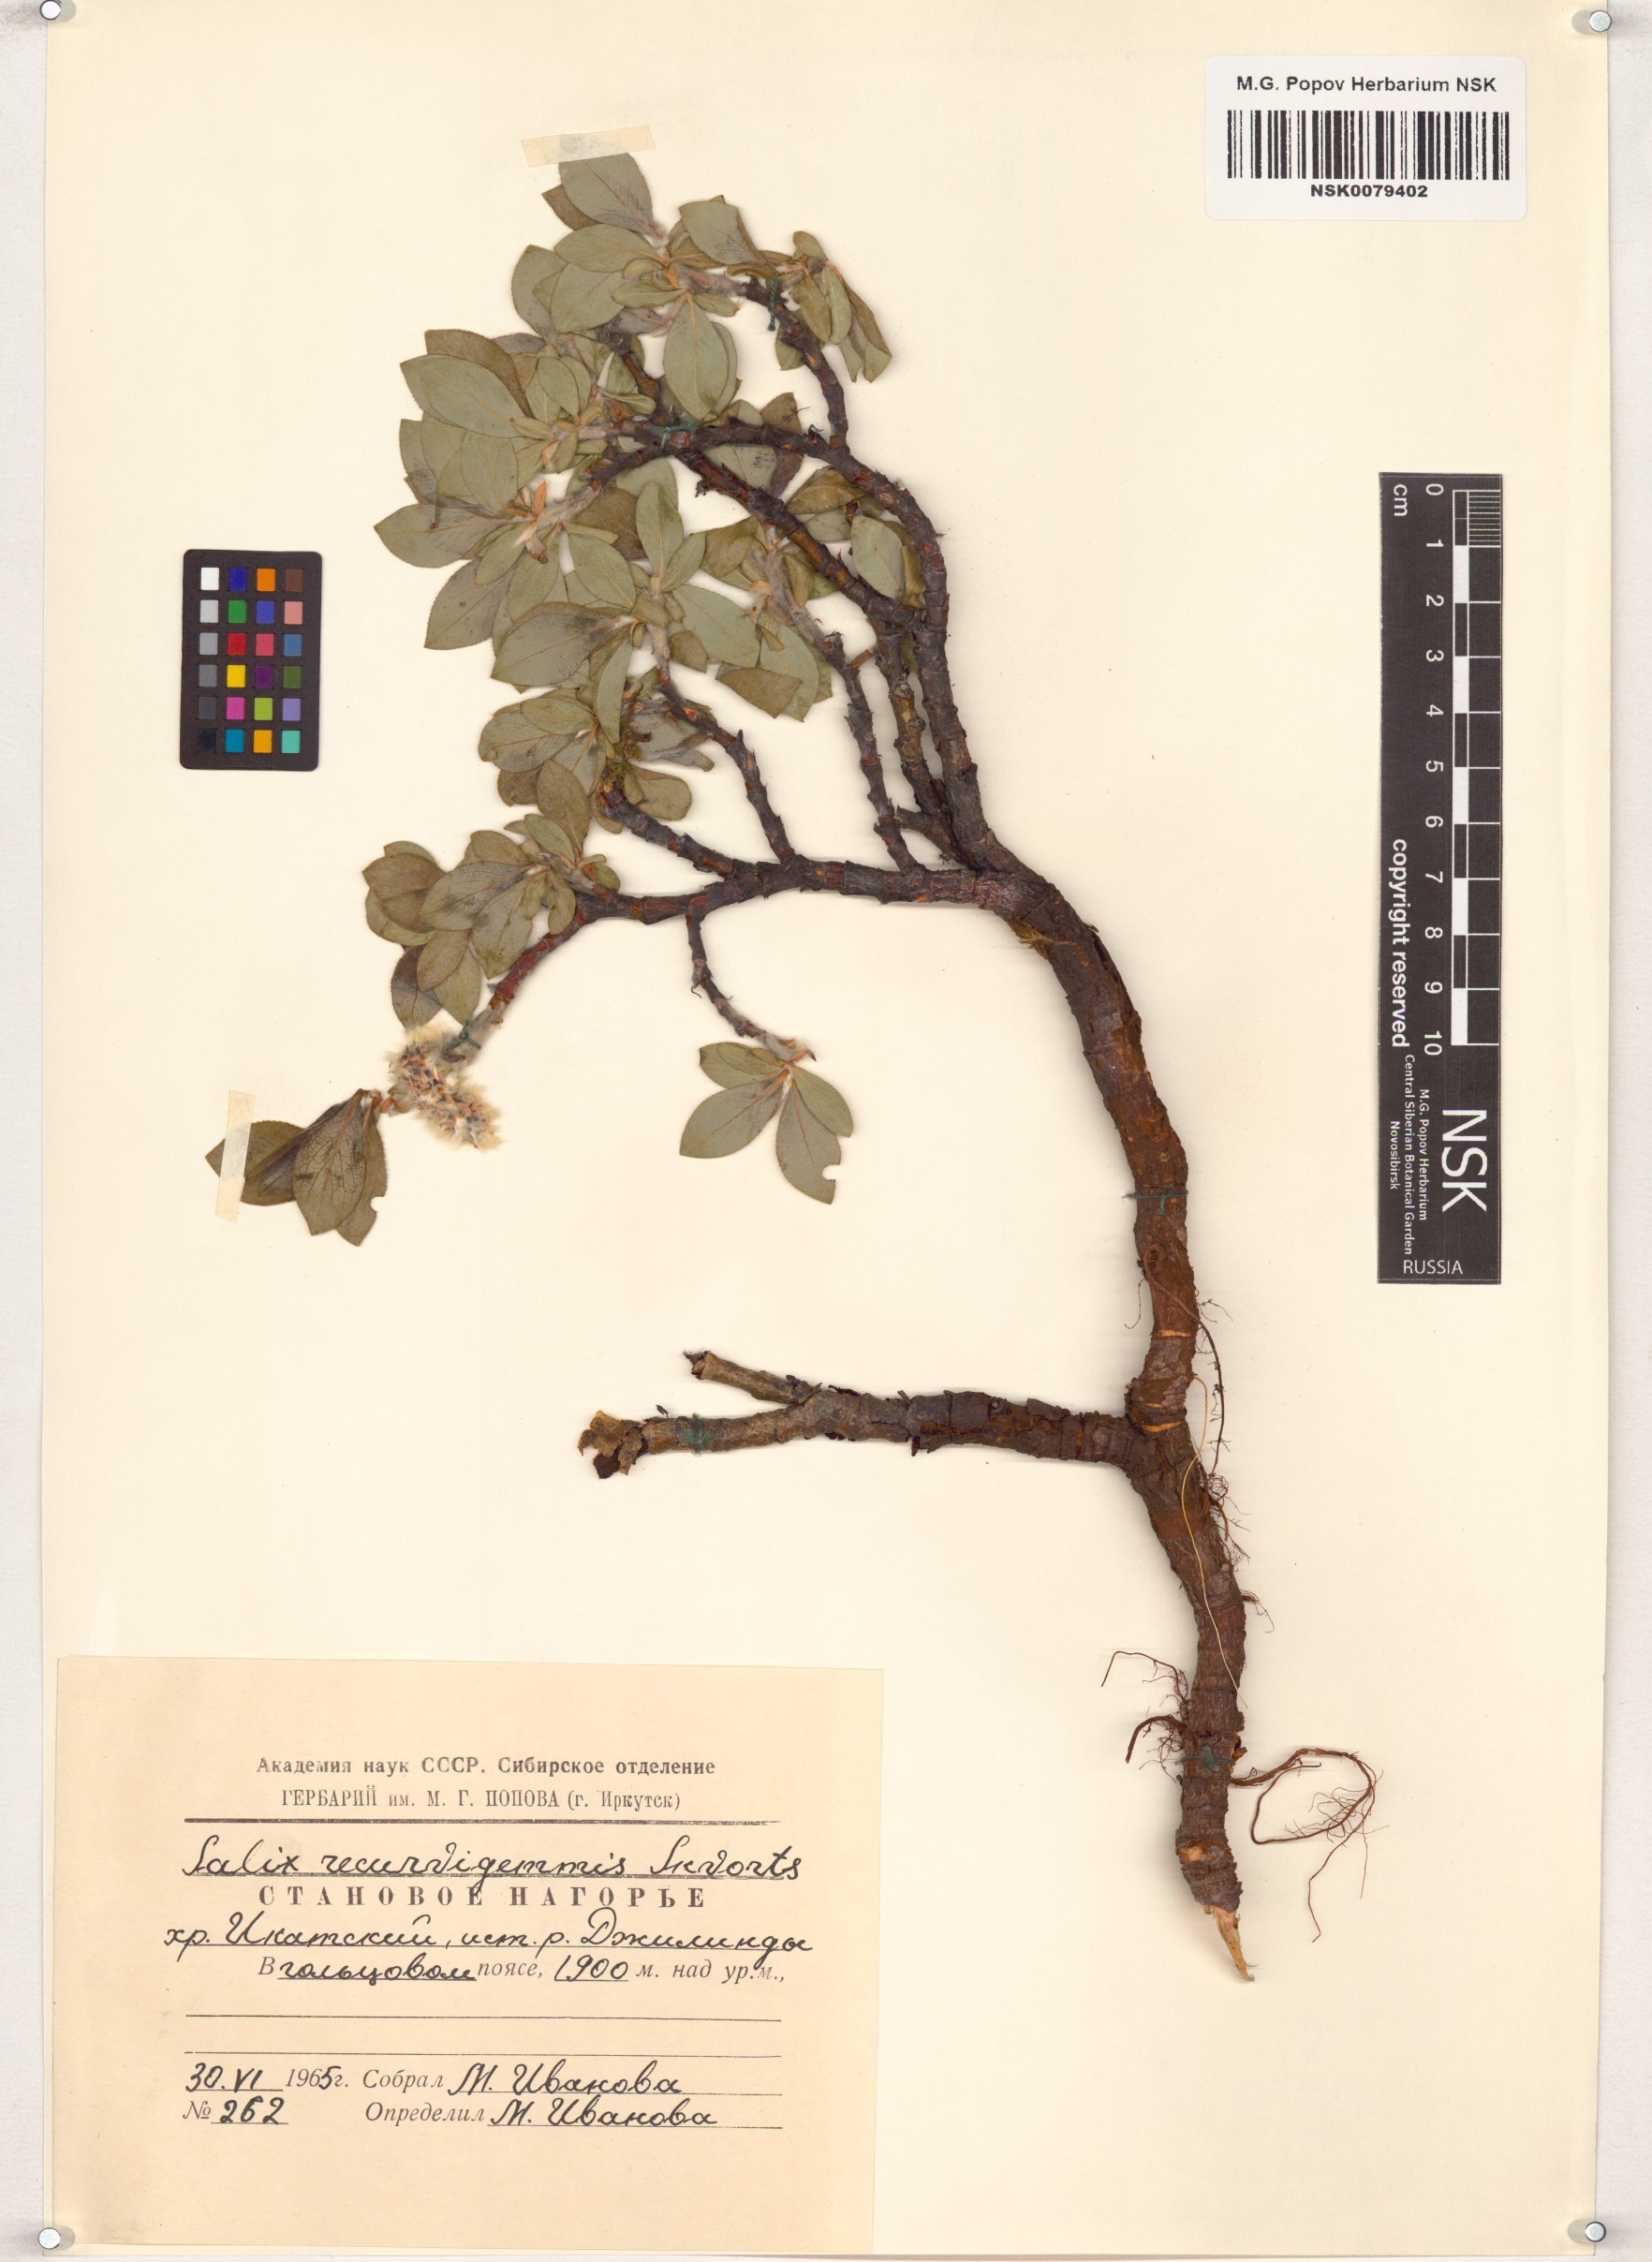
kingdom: Plantae
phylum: Tracheophyta
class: Magnoliopsida
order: Malpighiales
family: Salicaceae
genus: Salix
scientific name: Salix recurvigemmata
